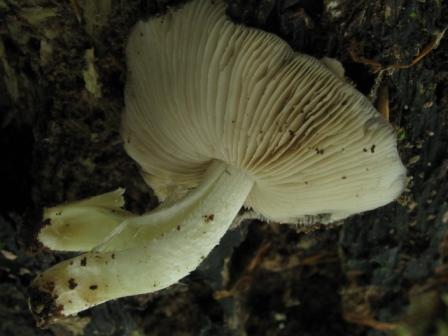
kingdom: Fungi
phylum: Basidiomycota
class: Agaricomycetes
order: Agaricales
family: Bolbitiaceae
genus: Bolbitius
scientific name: Bolbitius reticulatus
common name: netåret gulhat
